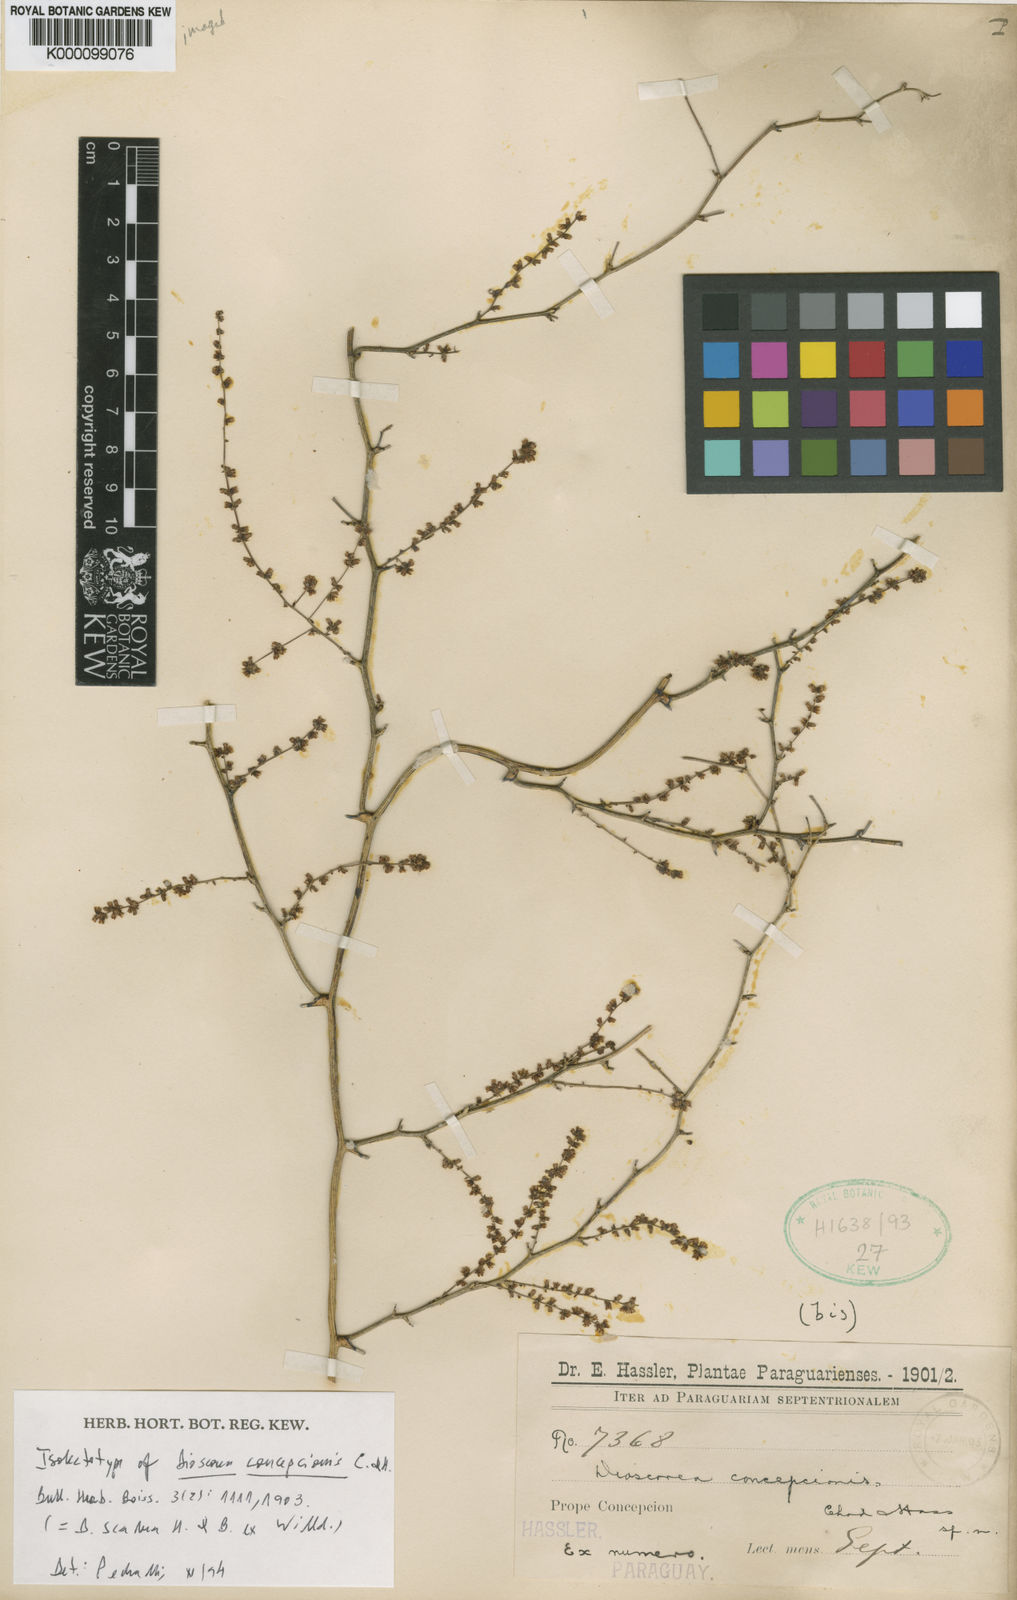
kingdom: Plantae
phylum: Tracheophyta
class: Liliopsida
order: Dioscoreales
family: Dioscoreaceae
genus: Dioscorea
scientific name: Dioscorea multiflora
